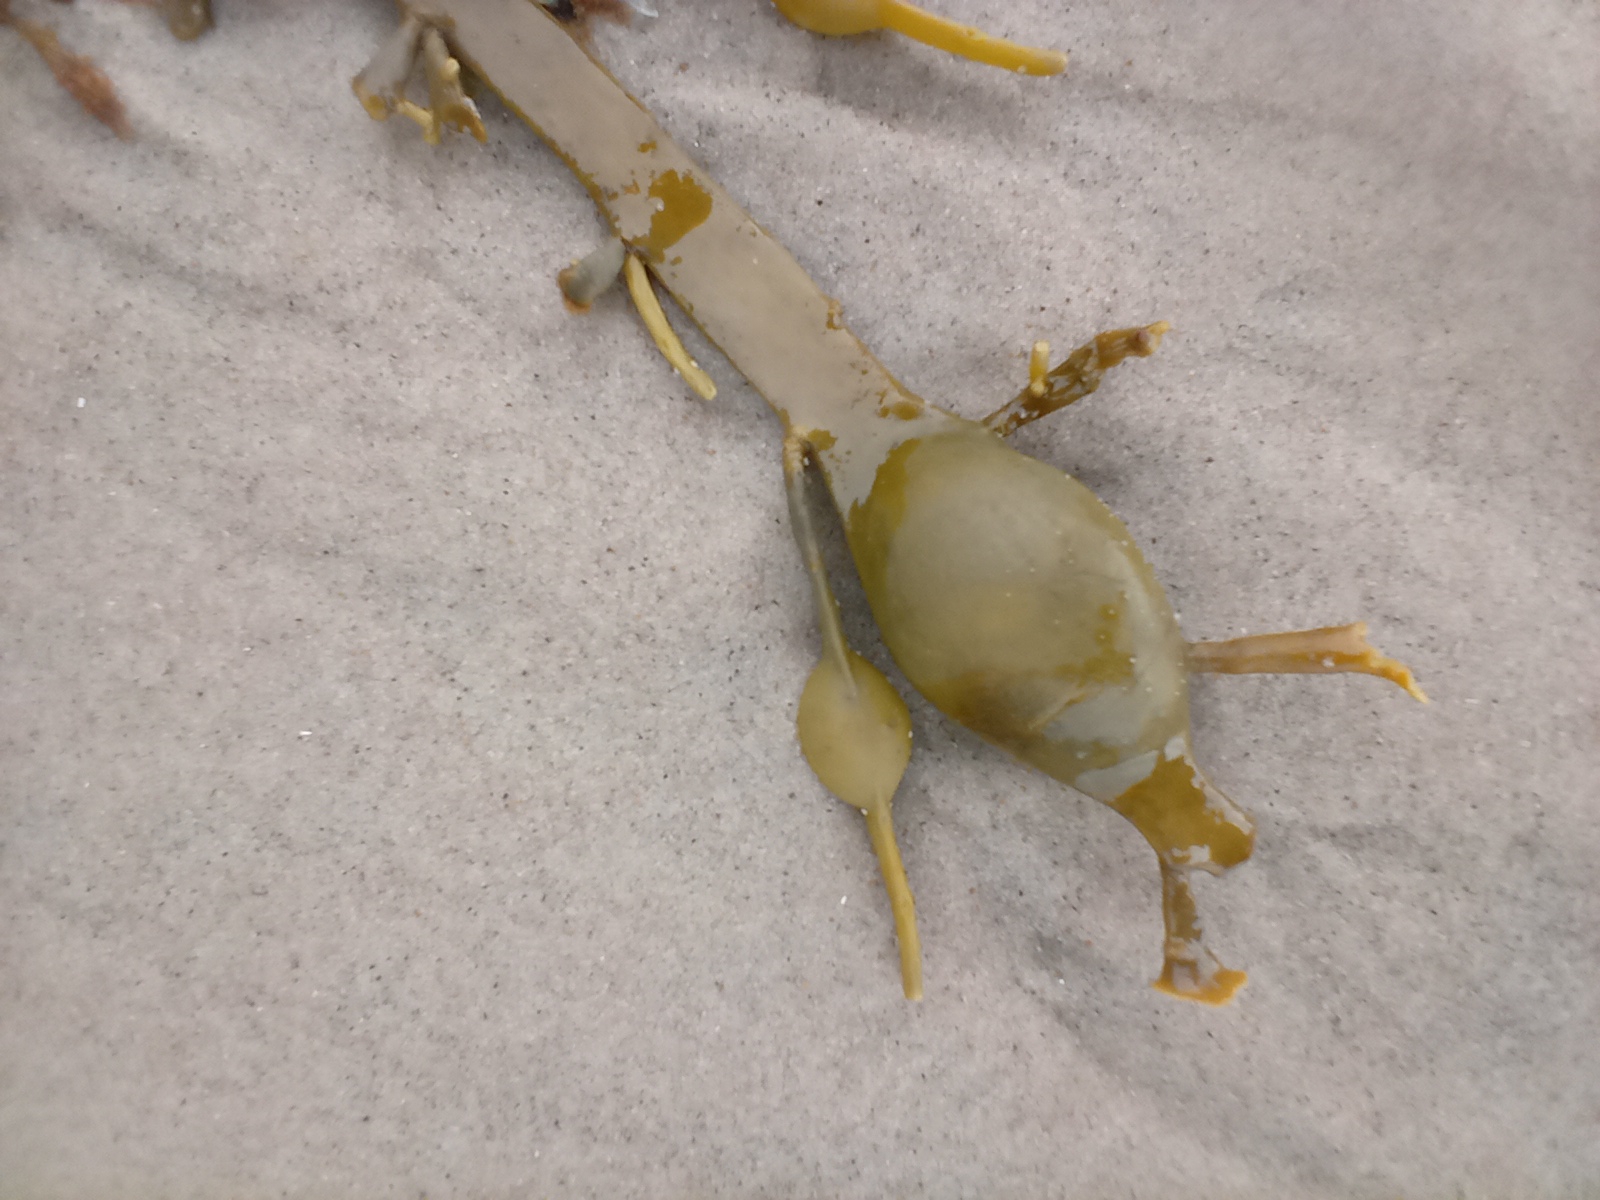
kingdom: Chromista
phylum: Ochrophyta
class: Phaeophyceae
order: Fucales
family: Fucaceae
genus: Ascophyllum
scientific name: Ascophyllum nodosum
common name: Buletang
